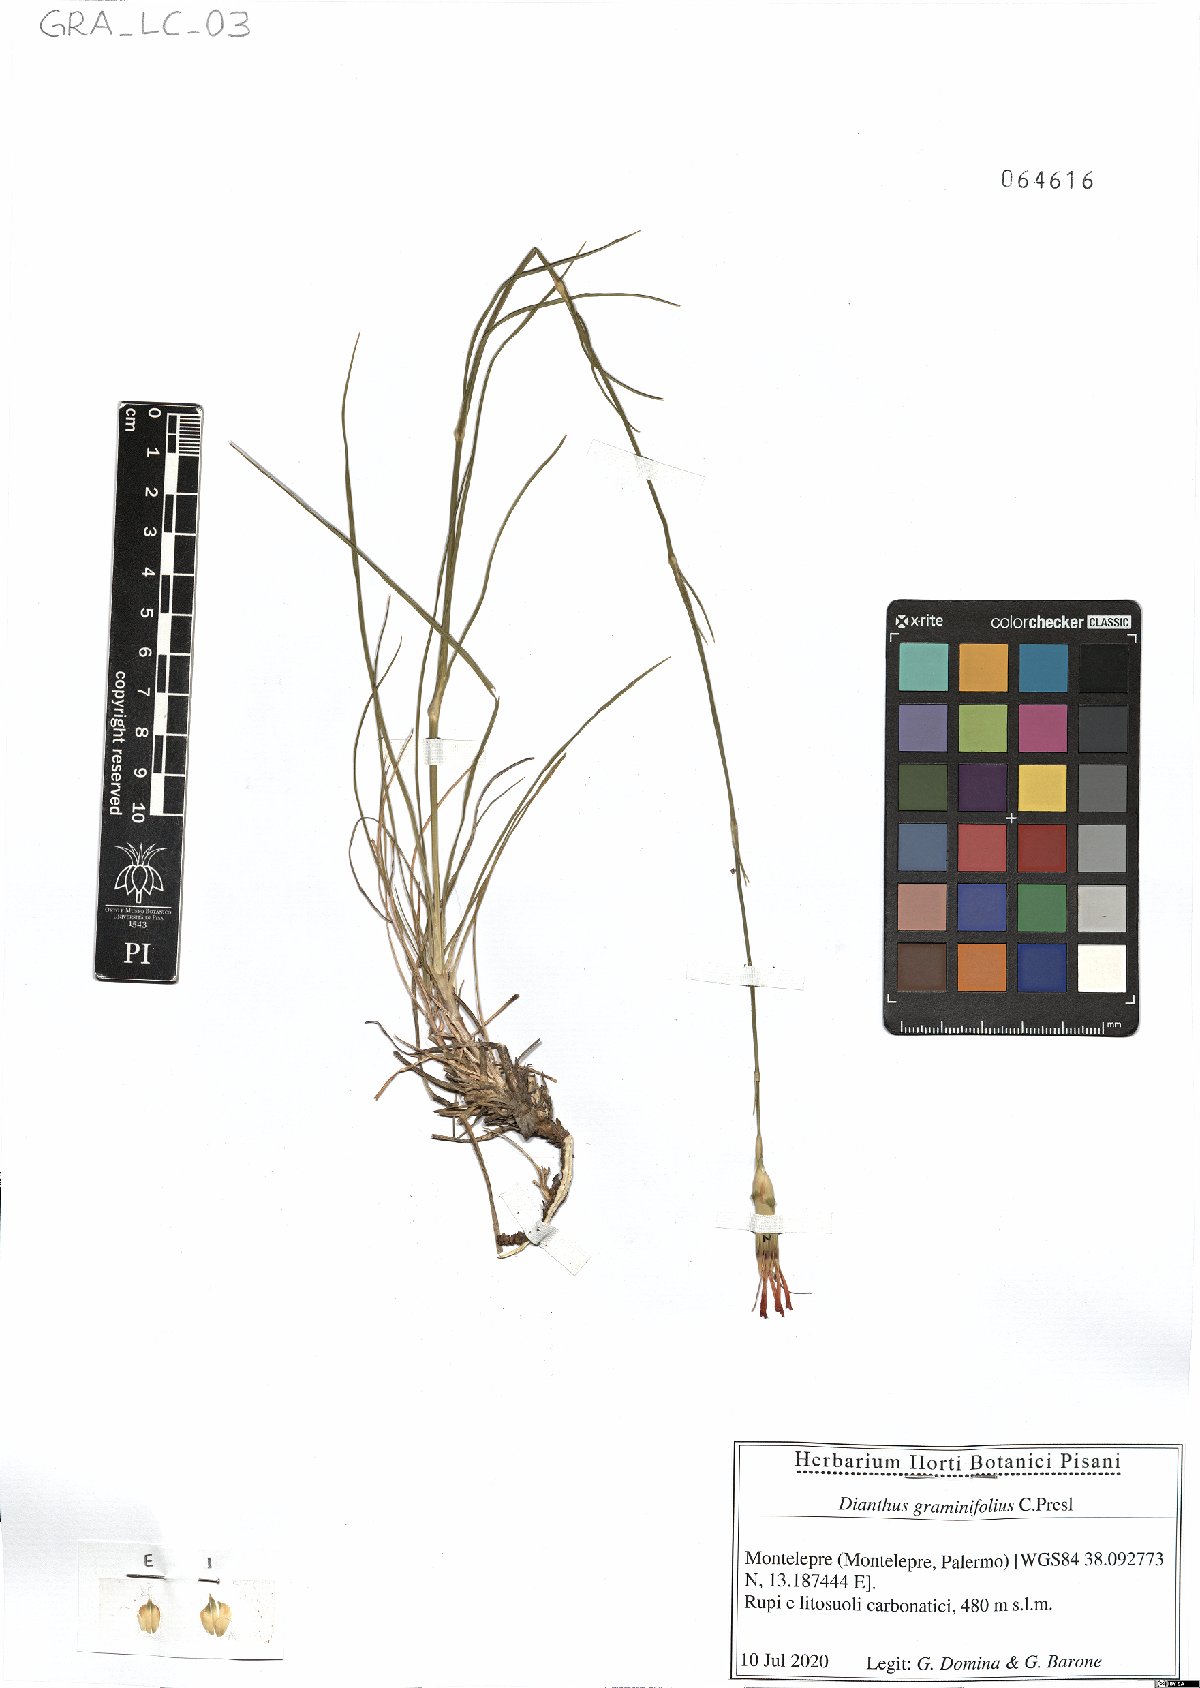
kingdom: Plantae
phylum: Tracheophyta
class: Magnoliopsida
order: Caryophyllales
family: Caryophyllaceae
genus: Dianthus
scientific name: Dianthus graminifolius
